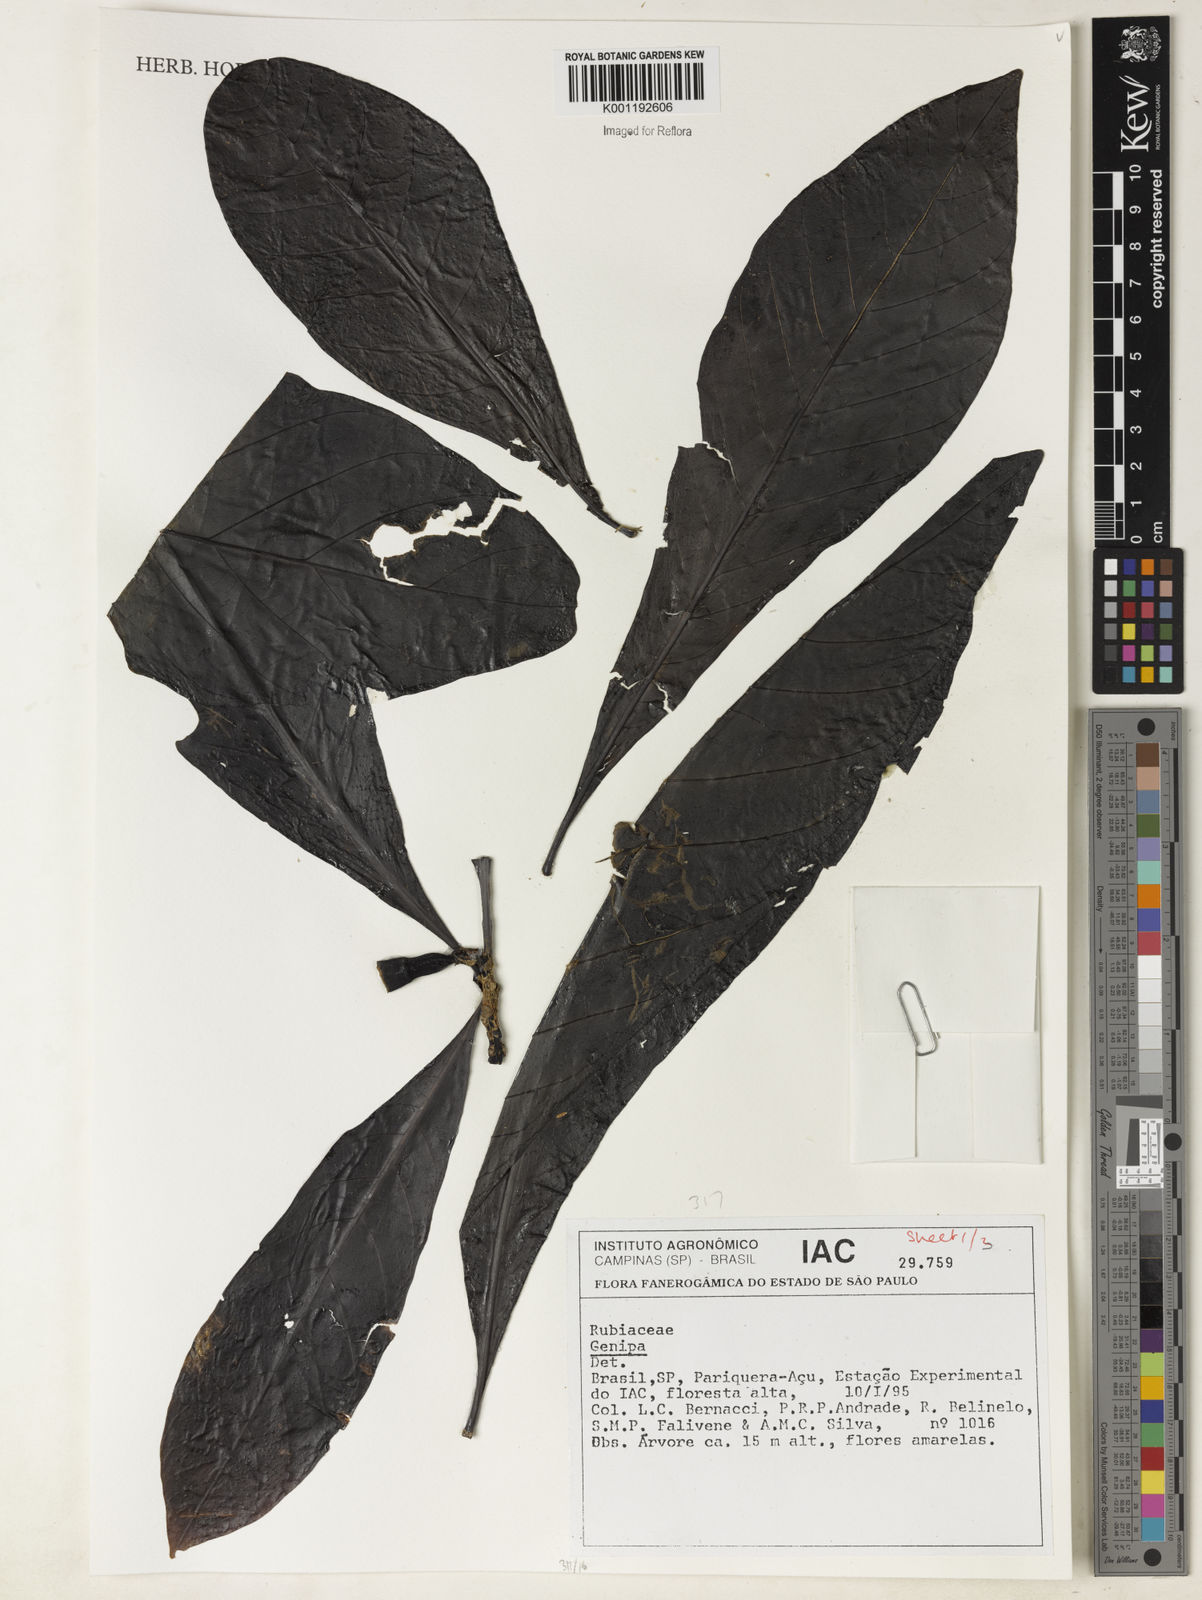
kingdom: Plantae
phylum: Tracheophyta
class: Magnoliopsida
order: Gentianales
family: Rubiaceae
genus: Genipa
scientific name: Genipa
